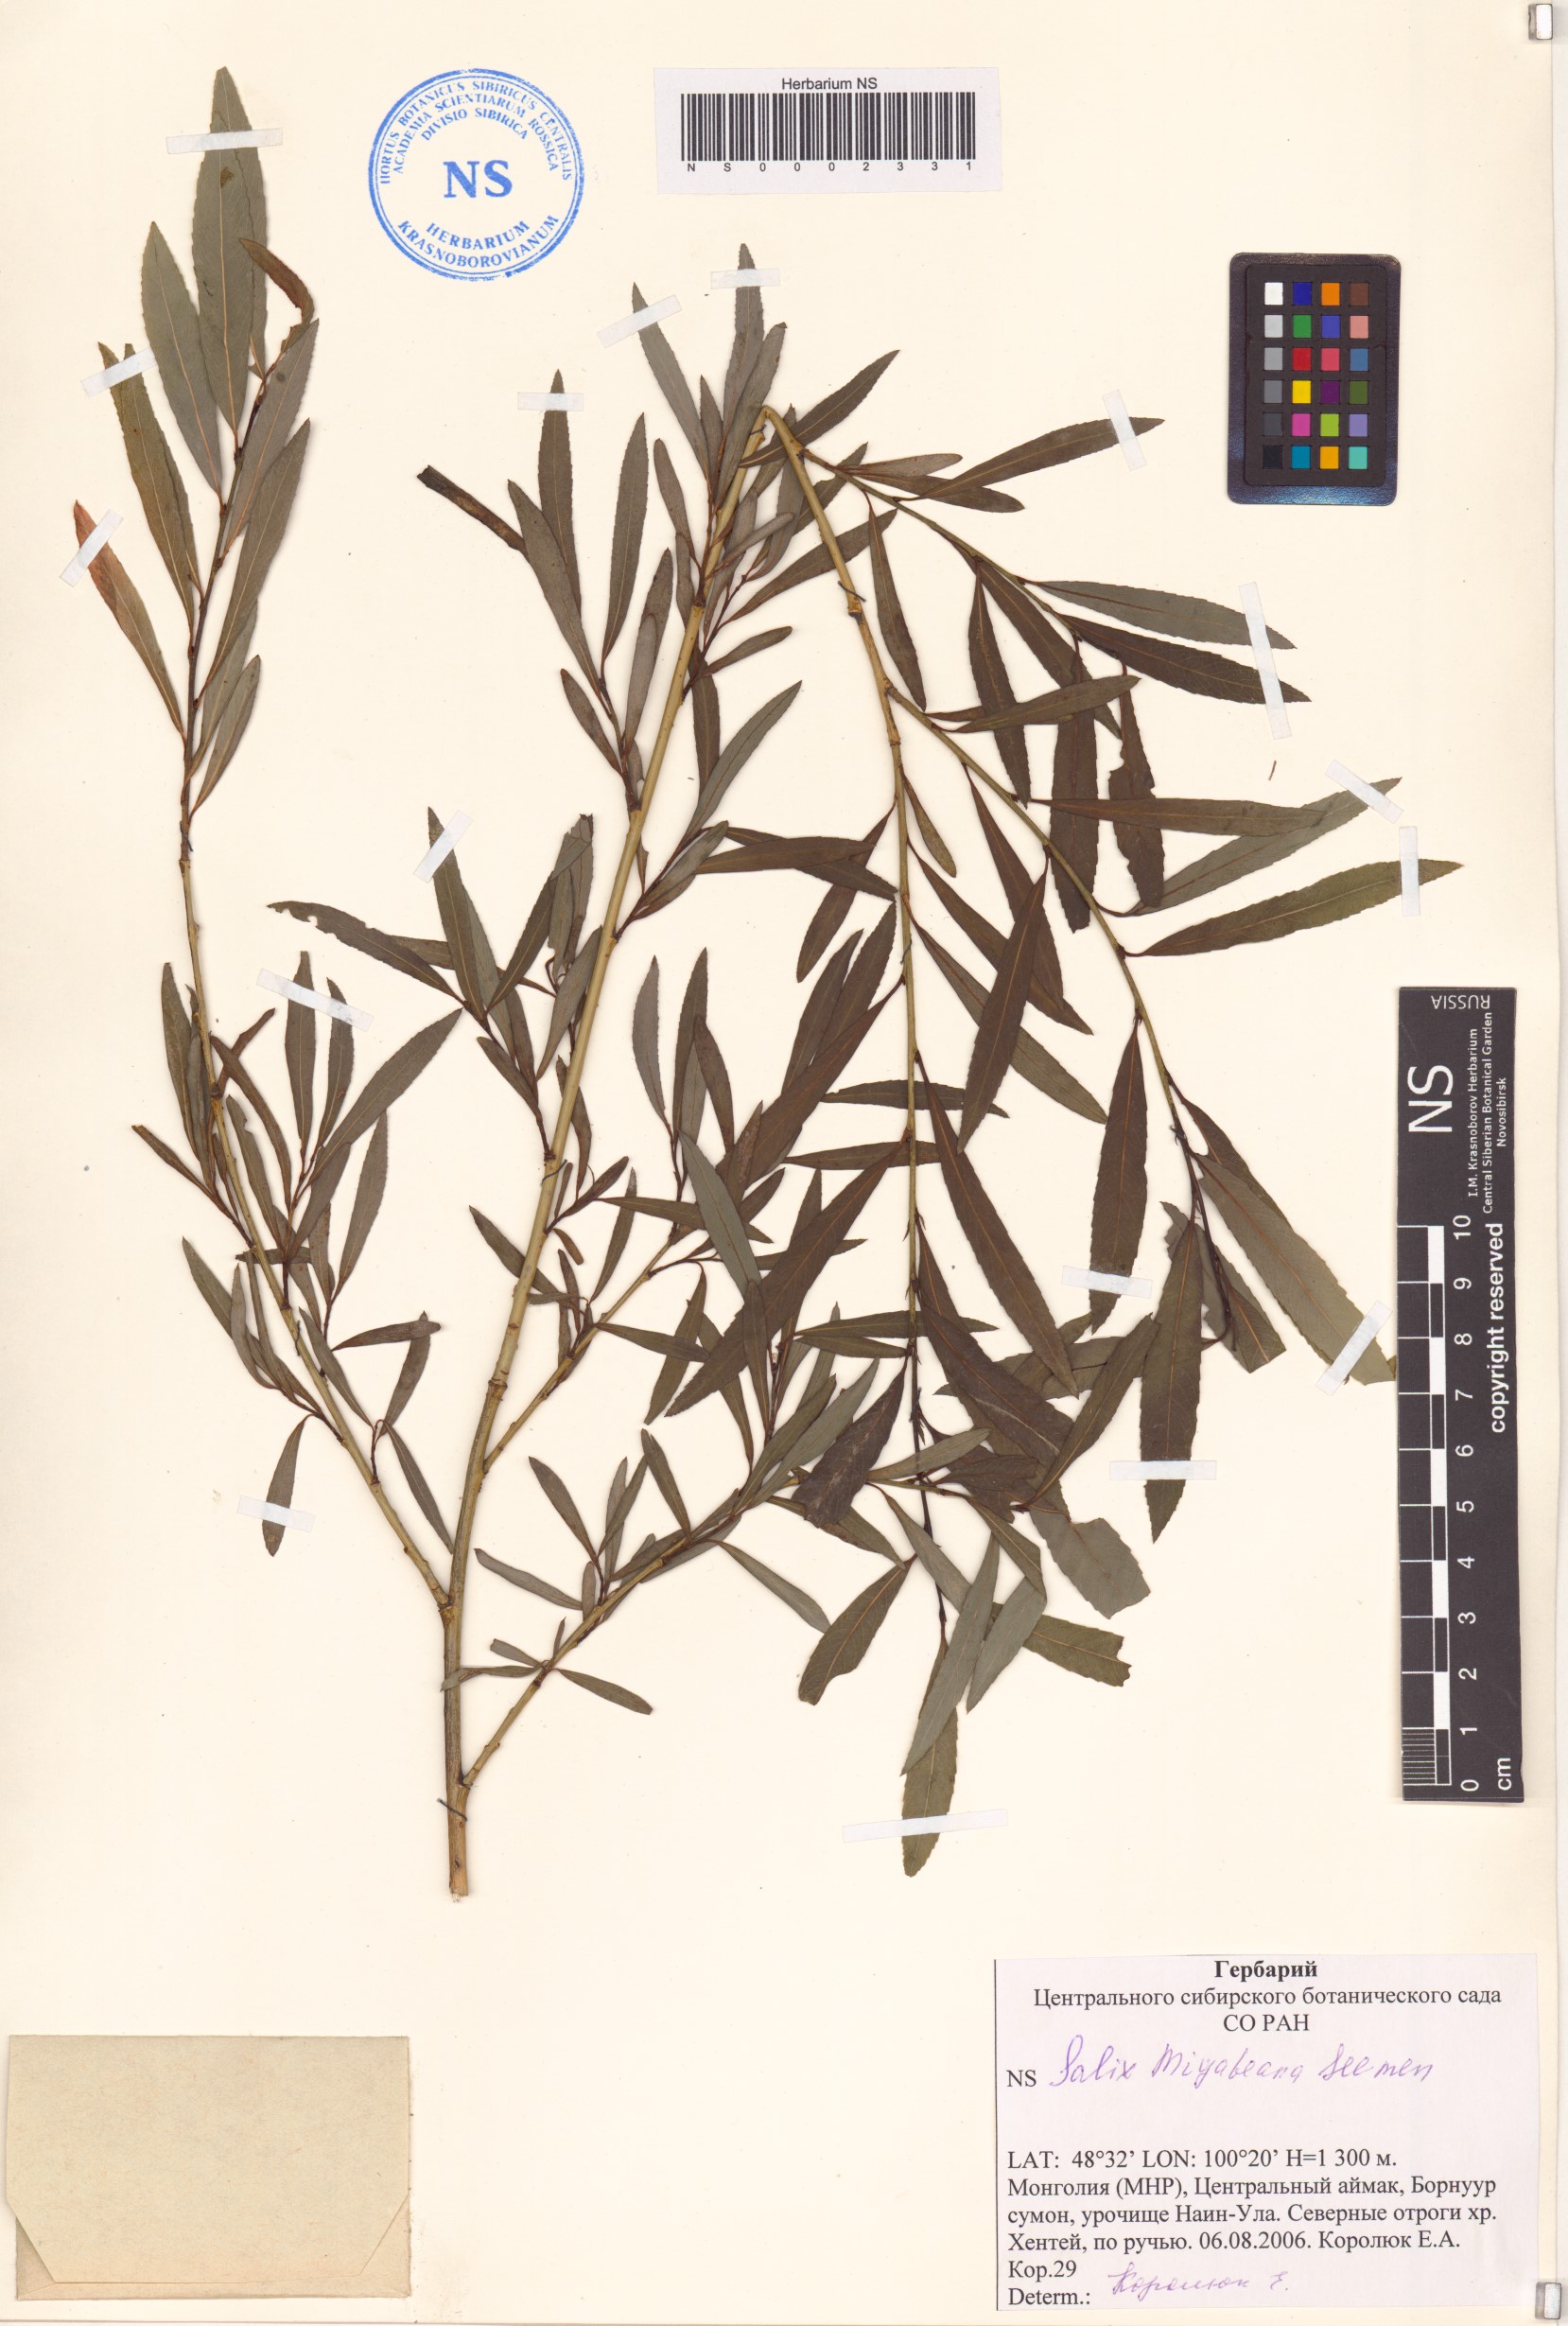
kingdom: Plantae
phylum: Tracheophyta
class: Magnoliopsida
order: Malpighiales
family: Salicaceae
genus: Salix
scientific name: Salix miyabeana
